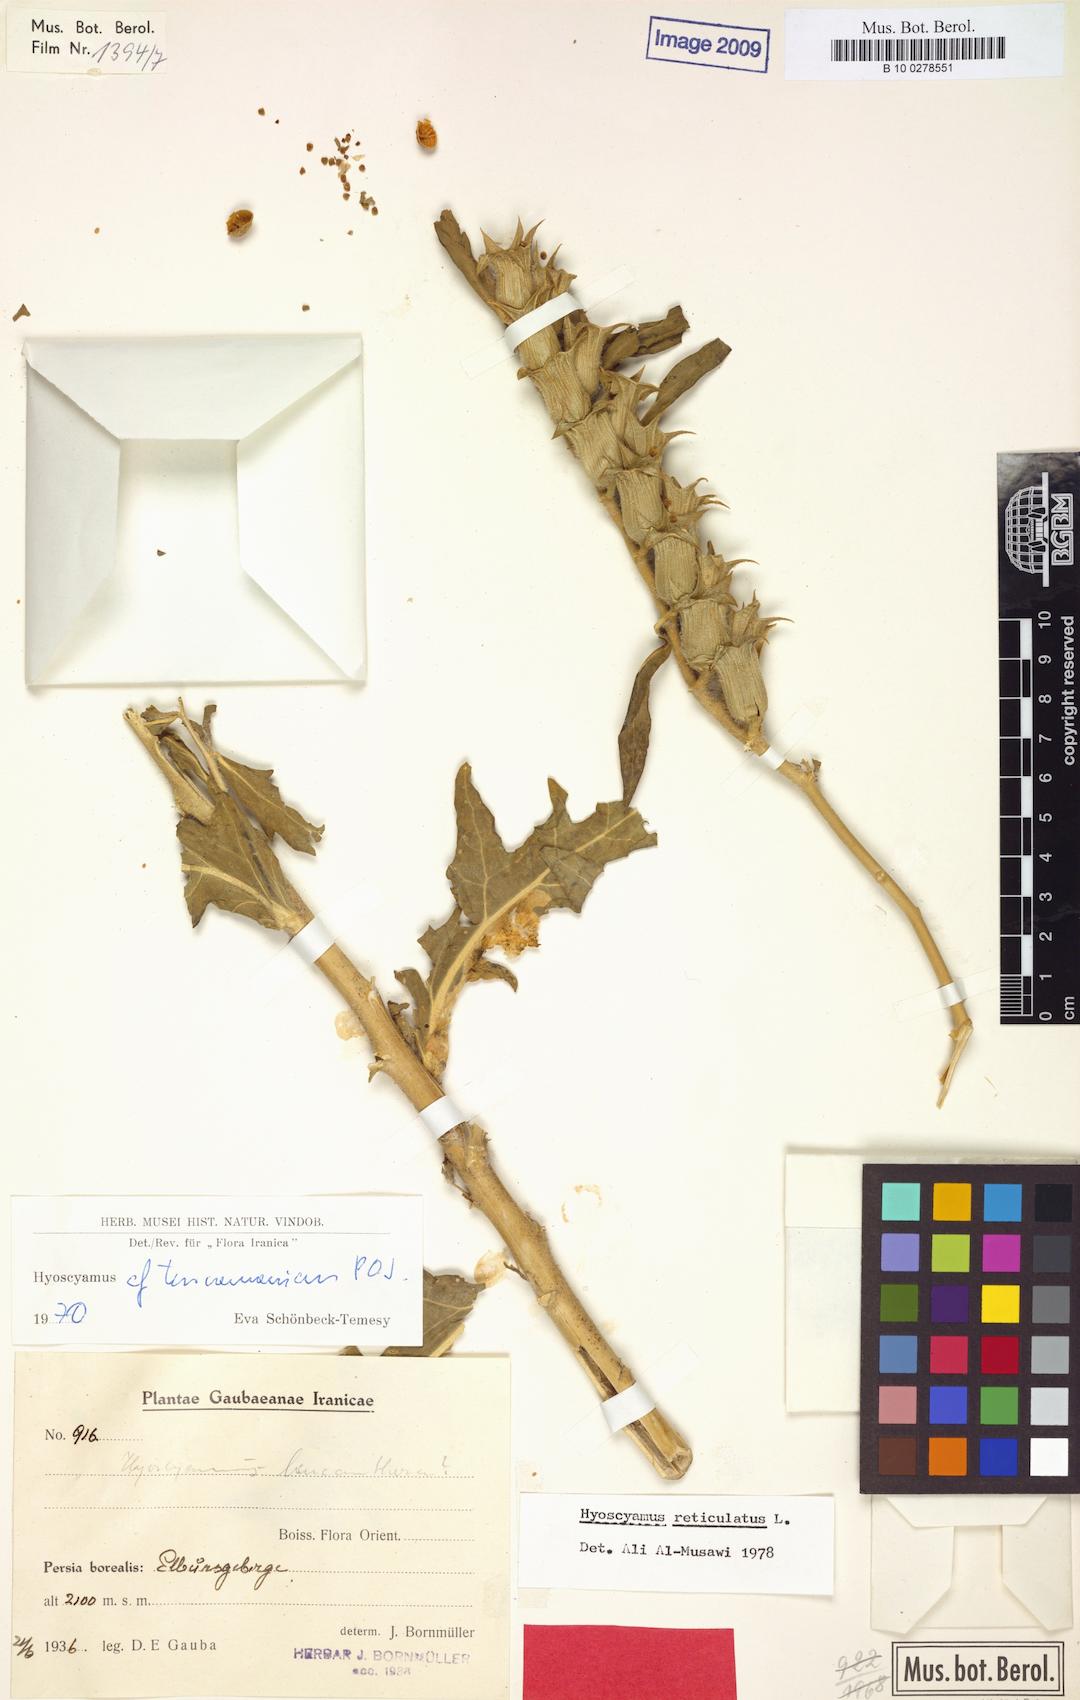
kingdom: Plantae
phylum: Tracheophyta
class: Magnoliopsida
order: Solanales
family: Solanaceae
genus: Hyoscyamus
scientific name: Hyoscyamus leucanthera
